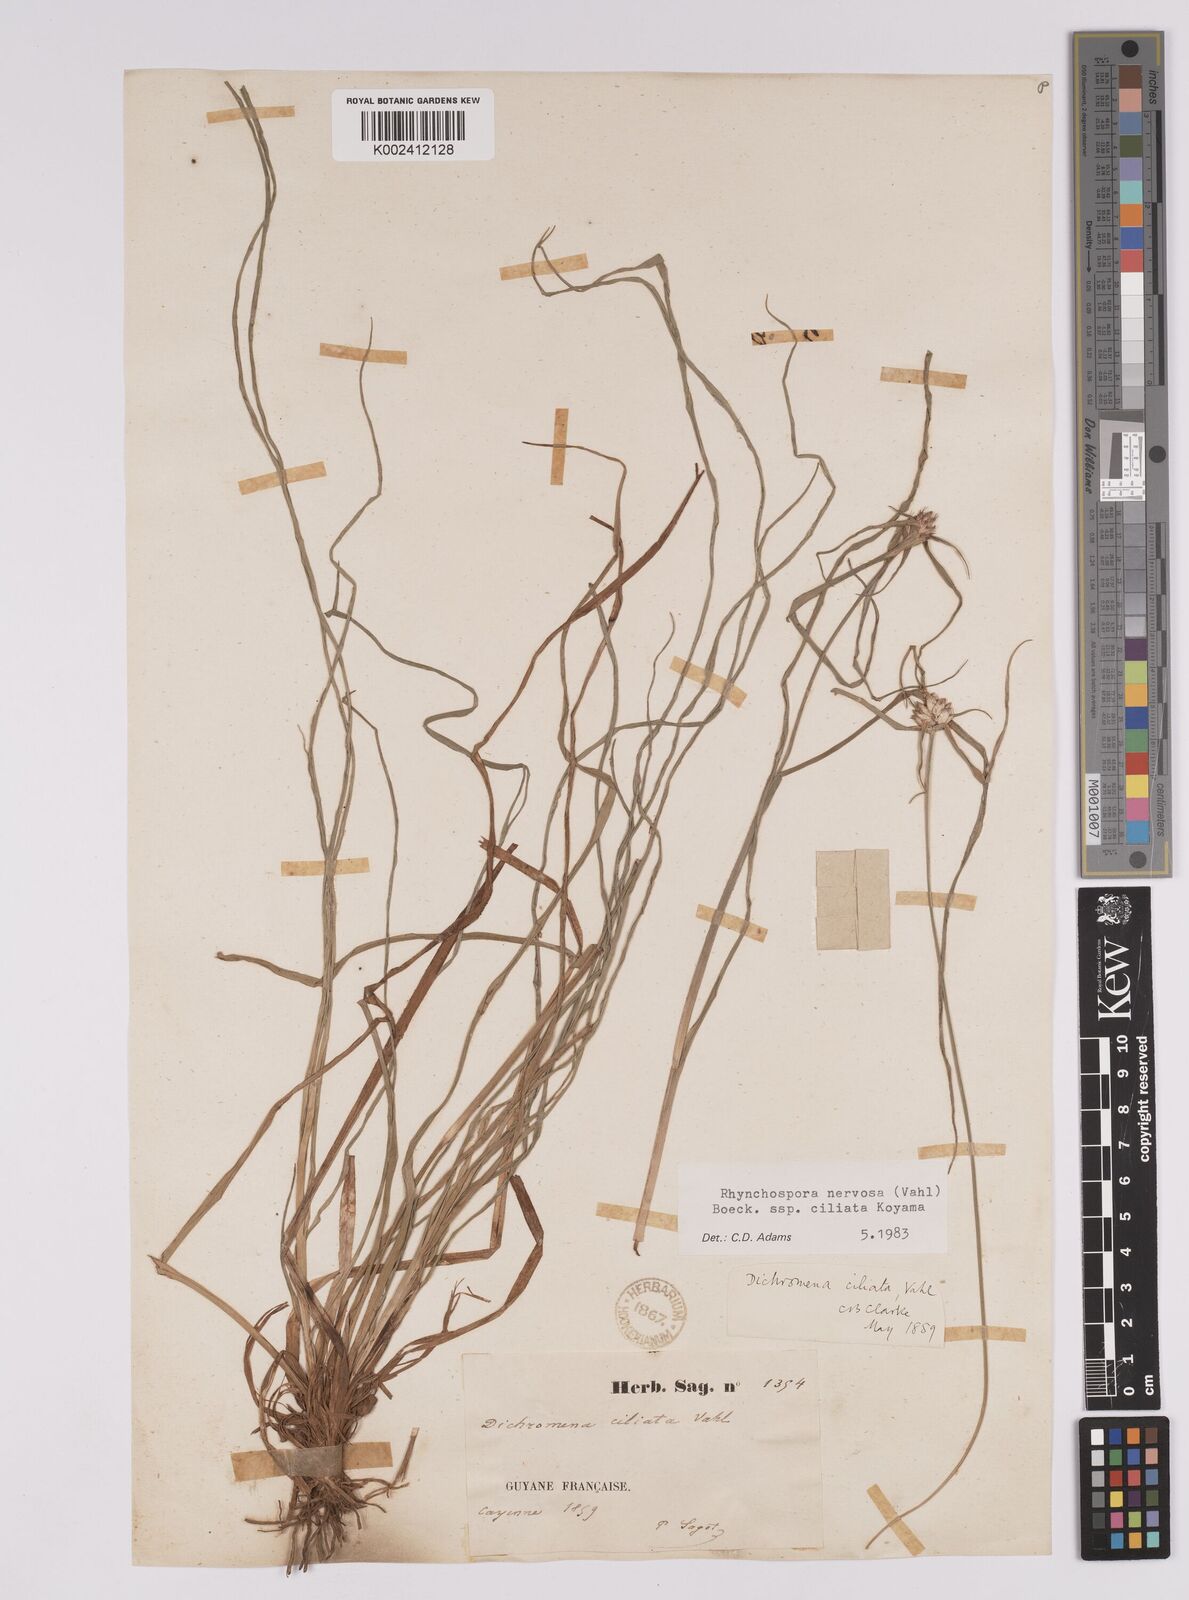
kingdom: Plantae
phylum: Tracheophyta
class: Liliopsida
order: Poales
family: Cyperaceae
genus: Rhynchospora
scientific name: Rhynchospora pura
